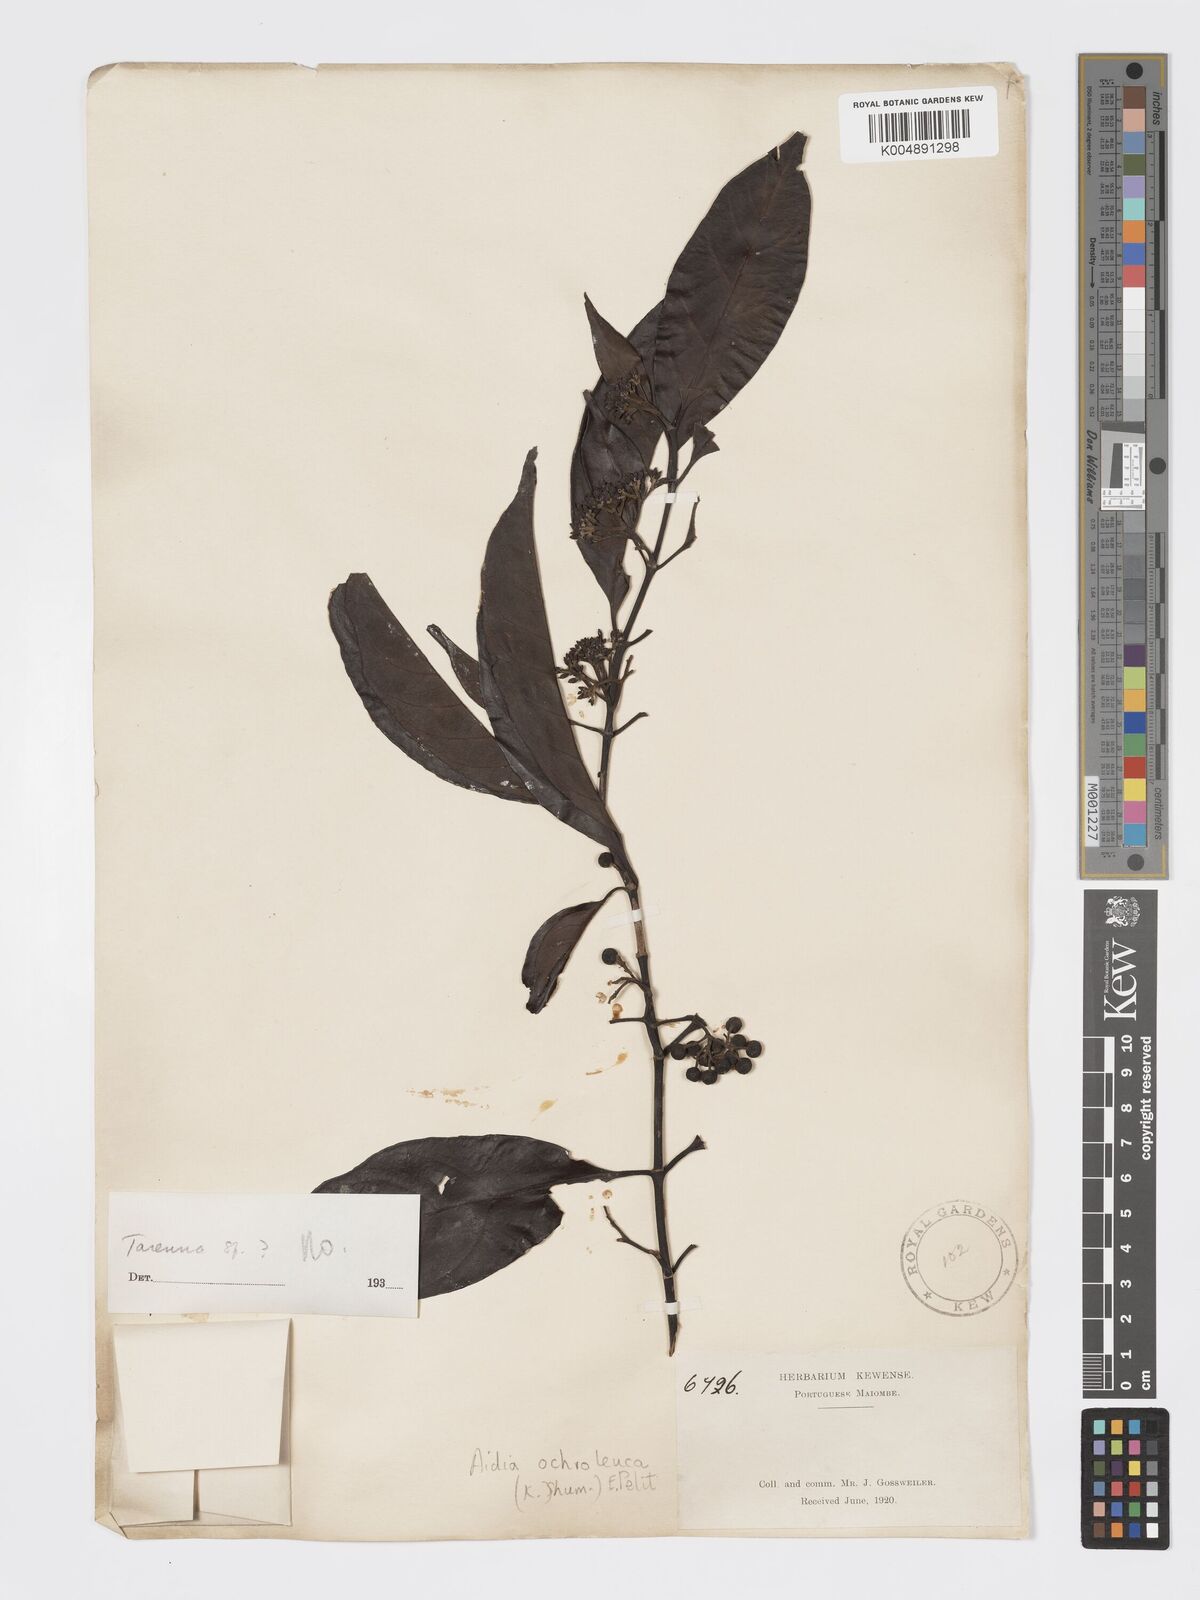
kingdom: Plantae
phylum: Tracheophyta
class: Magnoliopsida
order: Gentianales
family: Rubiaceae
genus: Aidia
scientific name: Aidia ochroleuca
